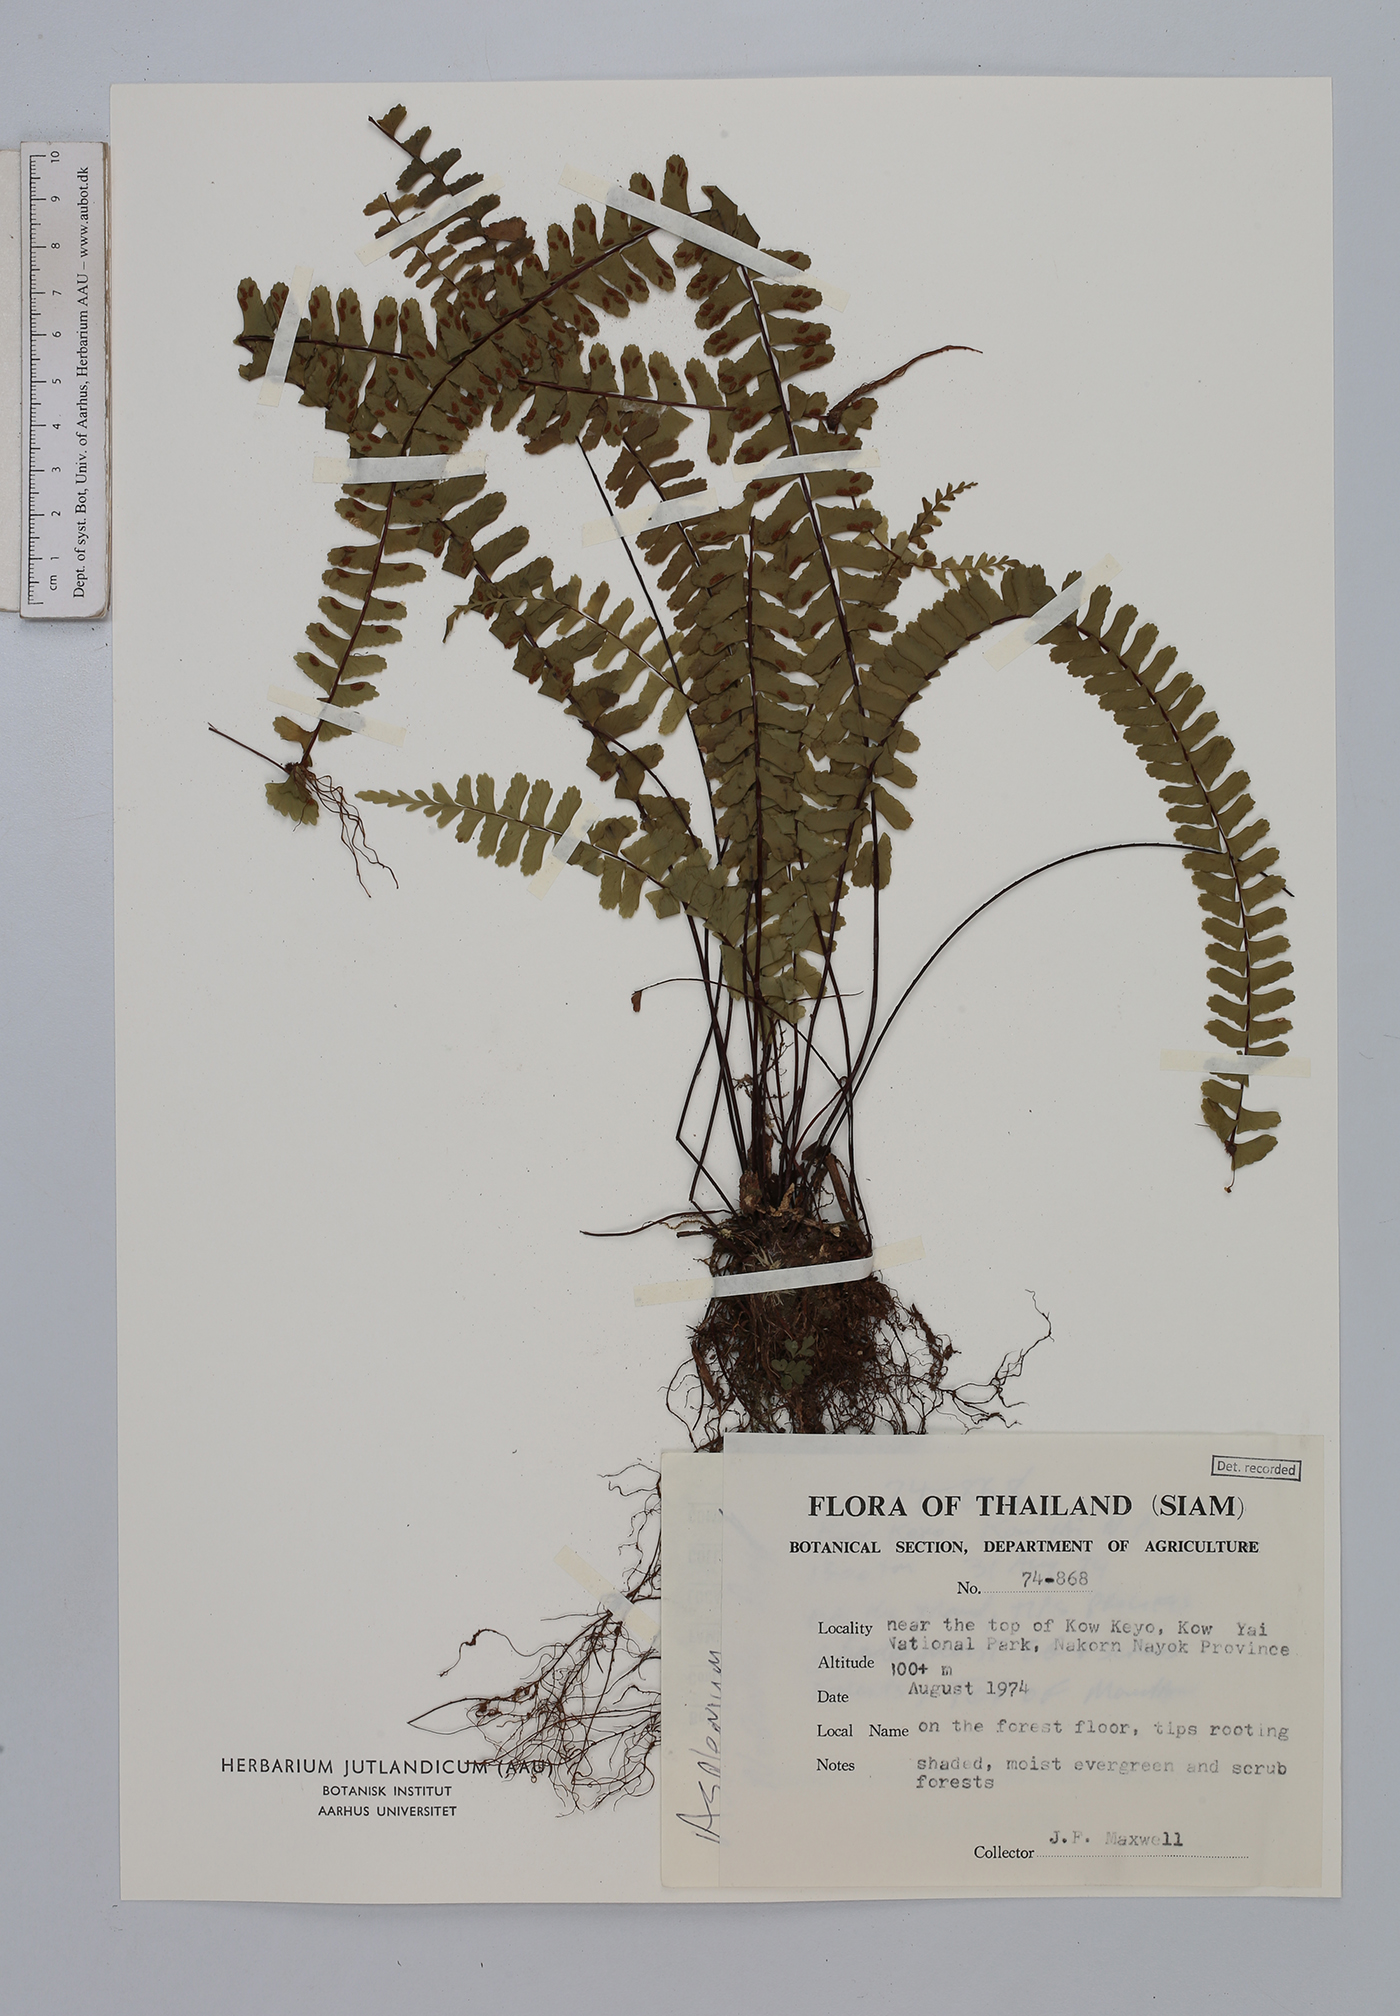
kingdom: Plantae
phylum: Tracheophyta
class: Polypodiopsida
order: Polypodiales
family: Aspleniaceae
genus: Asplenium
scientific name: Asplenium normale
